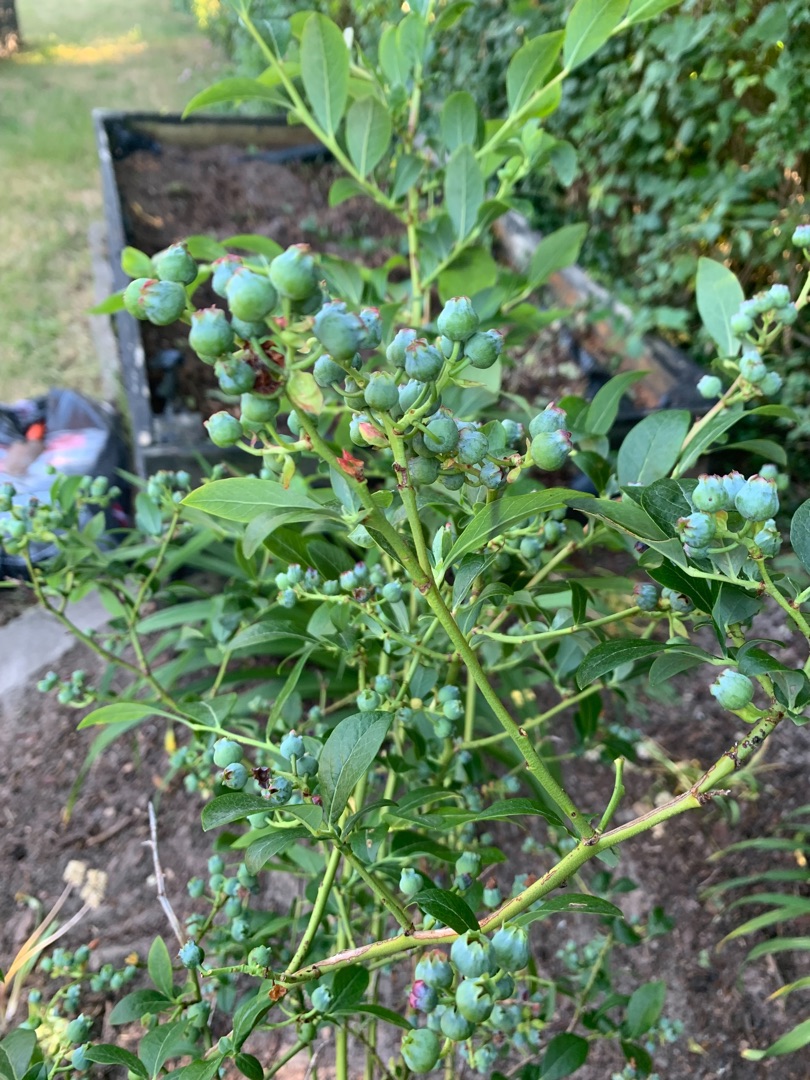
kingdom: Plantae
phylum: Tracheophyta
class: Magnoliopsida
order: Ericales
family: Ericaceae
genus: Vaccinium
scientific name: Vaccinium corymbosum
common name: Amerikansk blåbær
